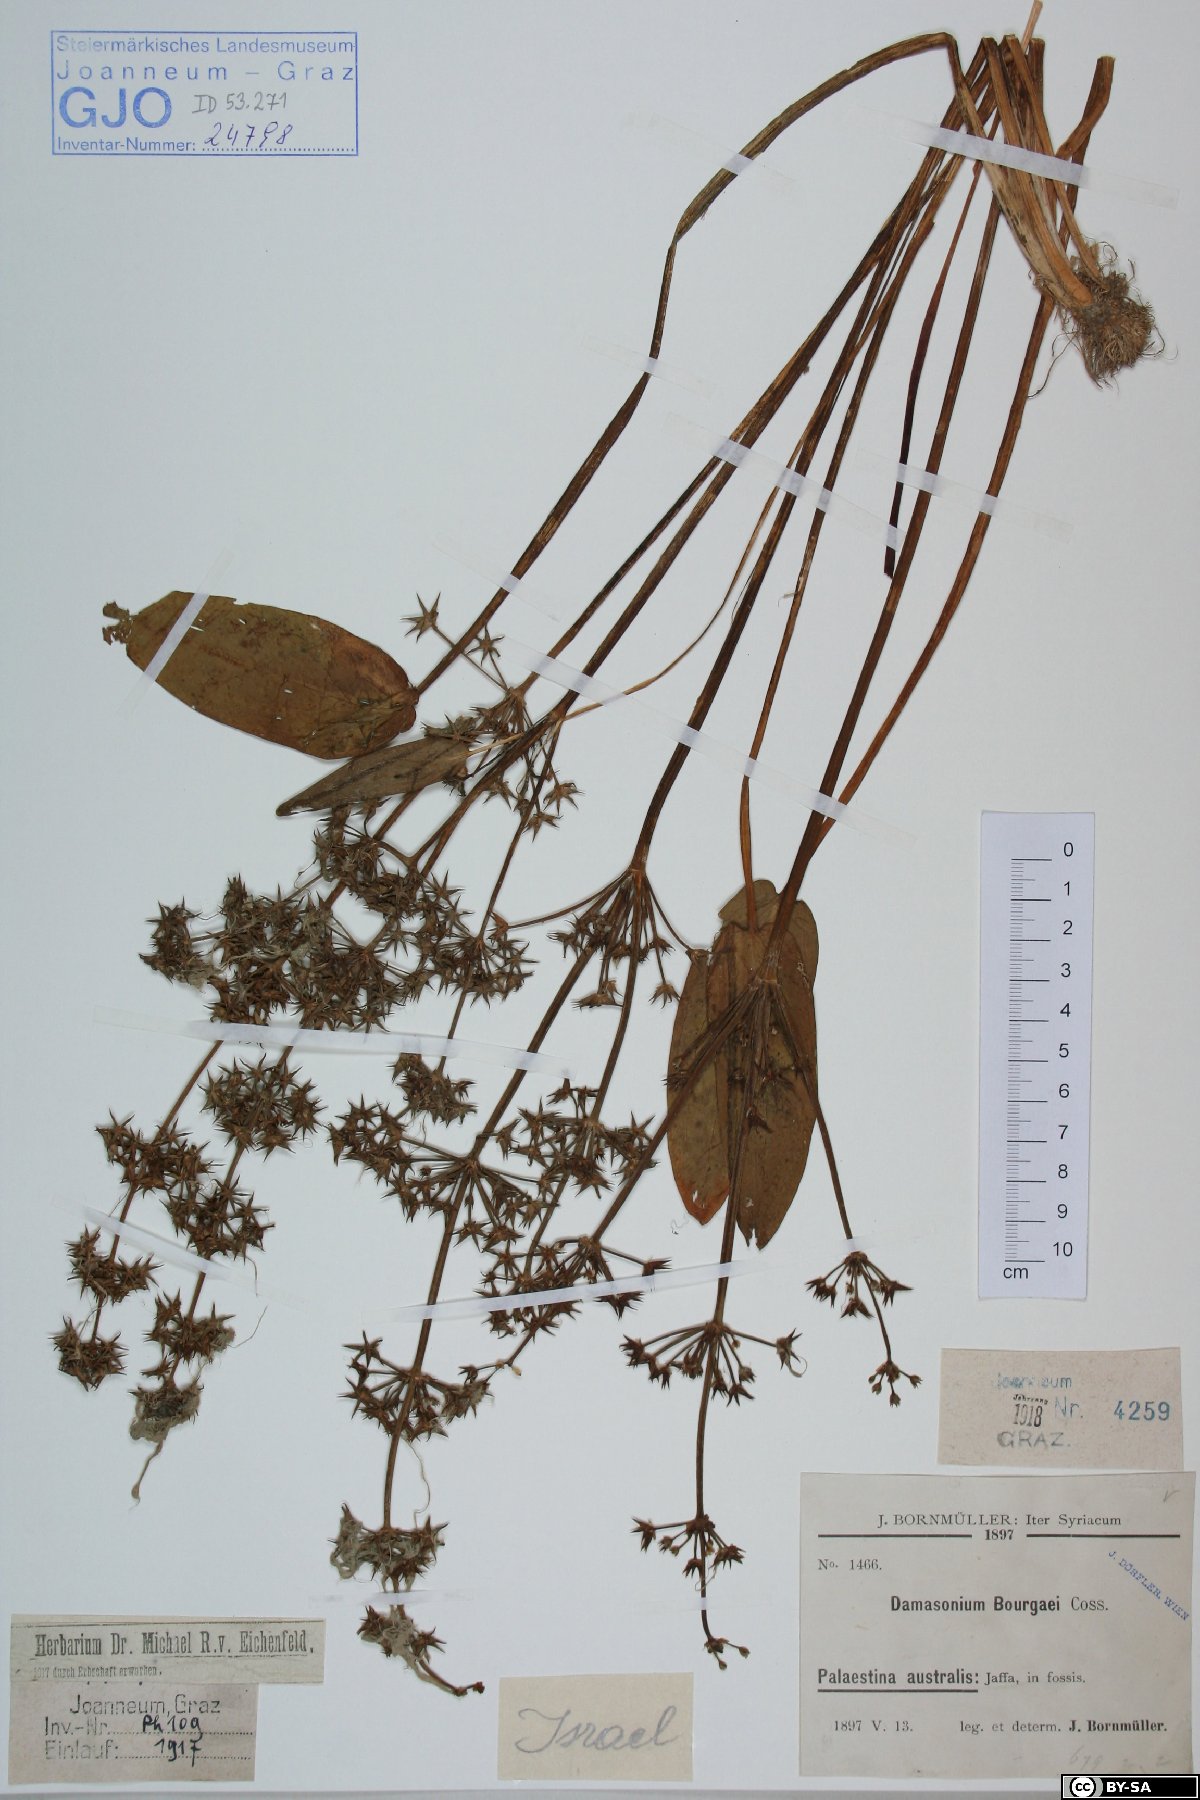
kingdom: Plantae
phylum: Tracheophyta
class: Liliopsida
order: Alismatales
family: Alismataceae
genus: Damasonium
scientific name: Damasonium bourgaei
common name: Starfruit
